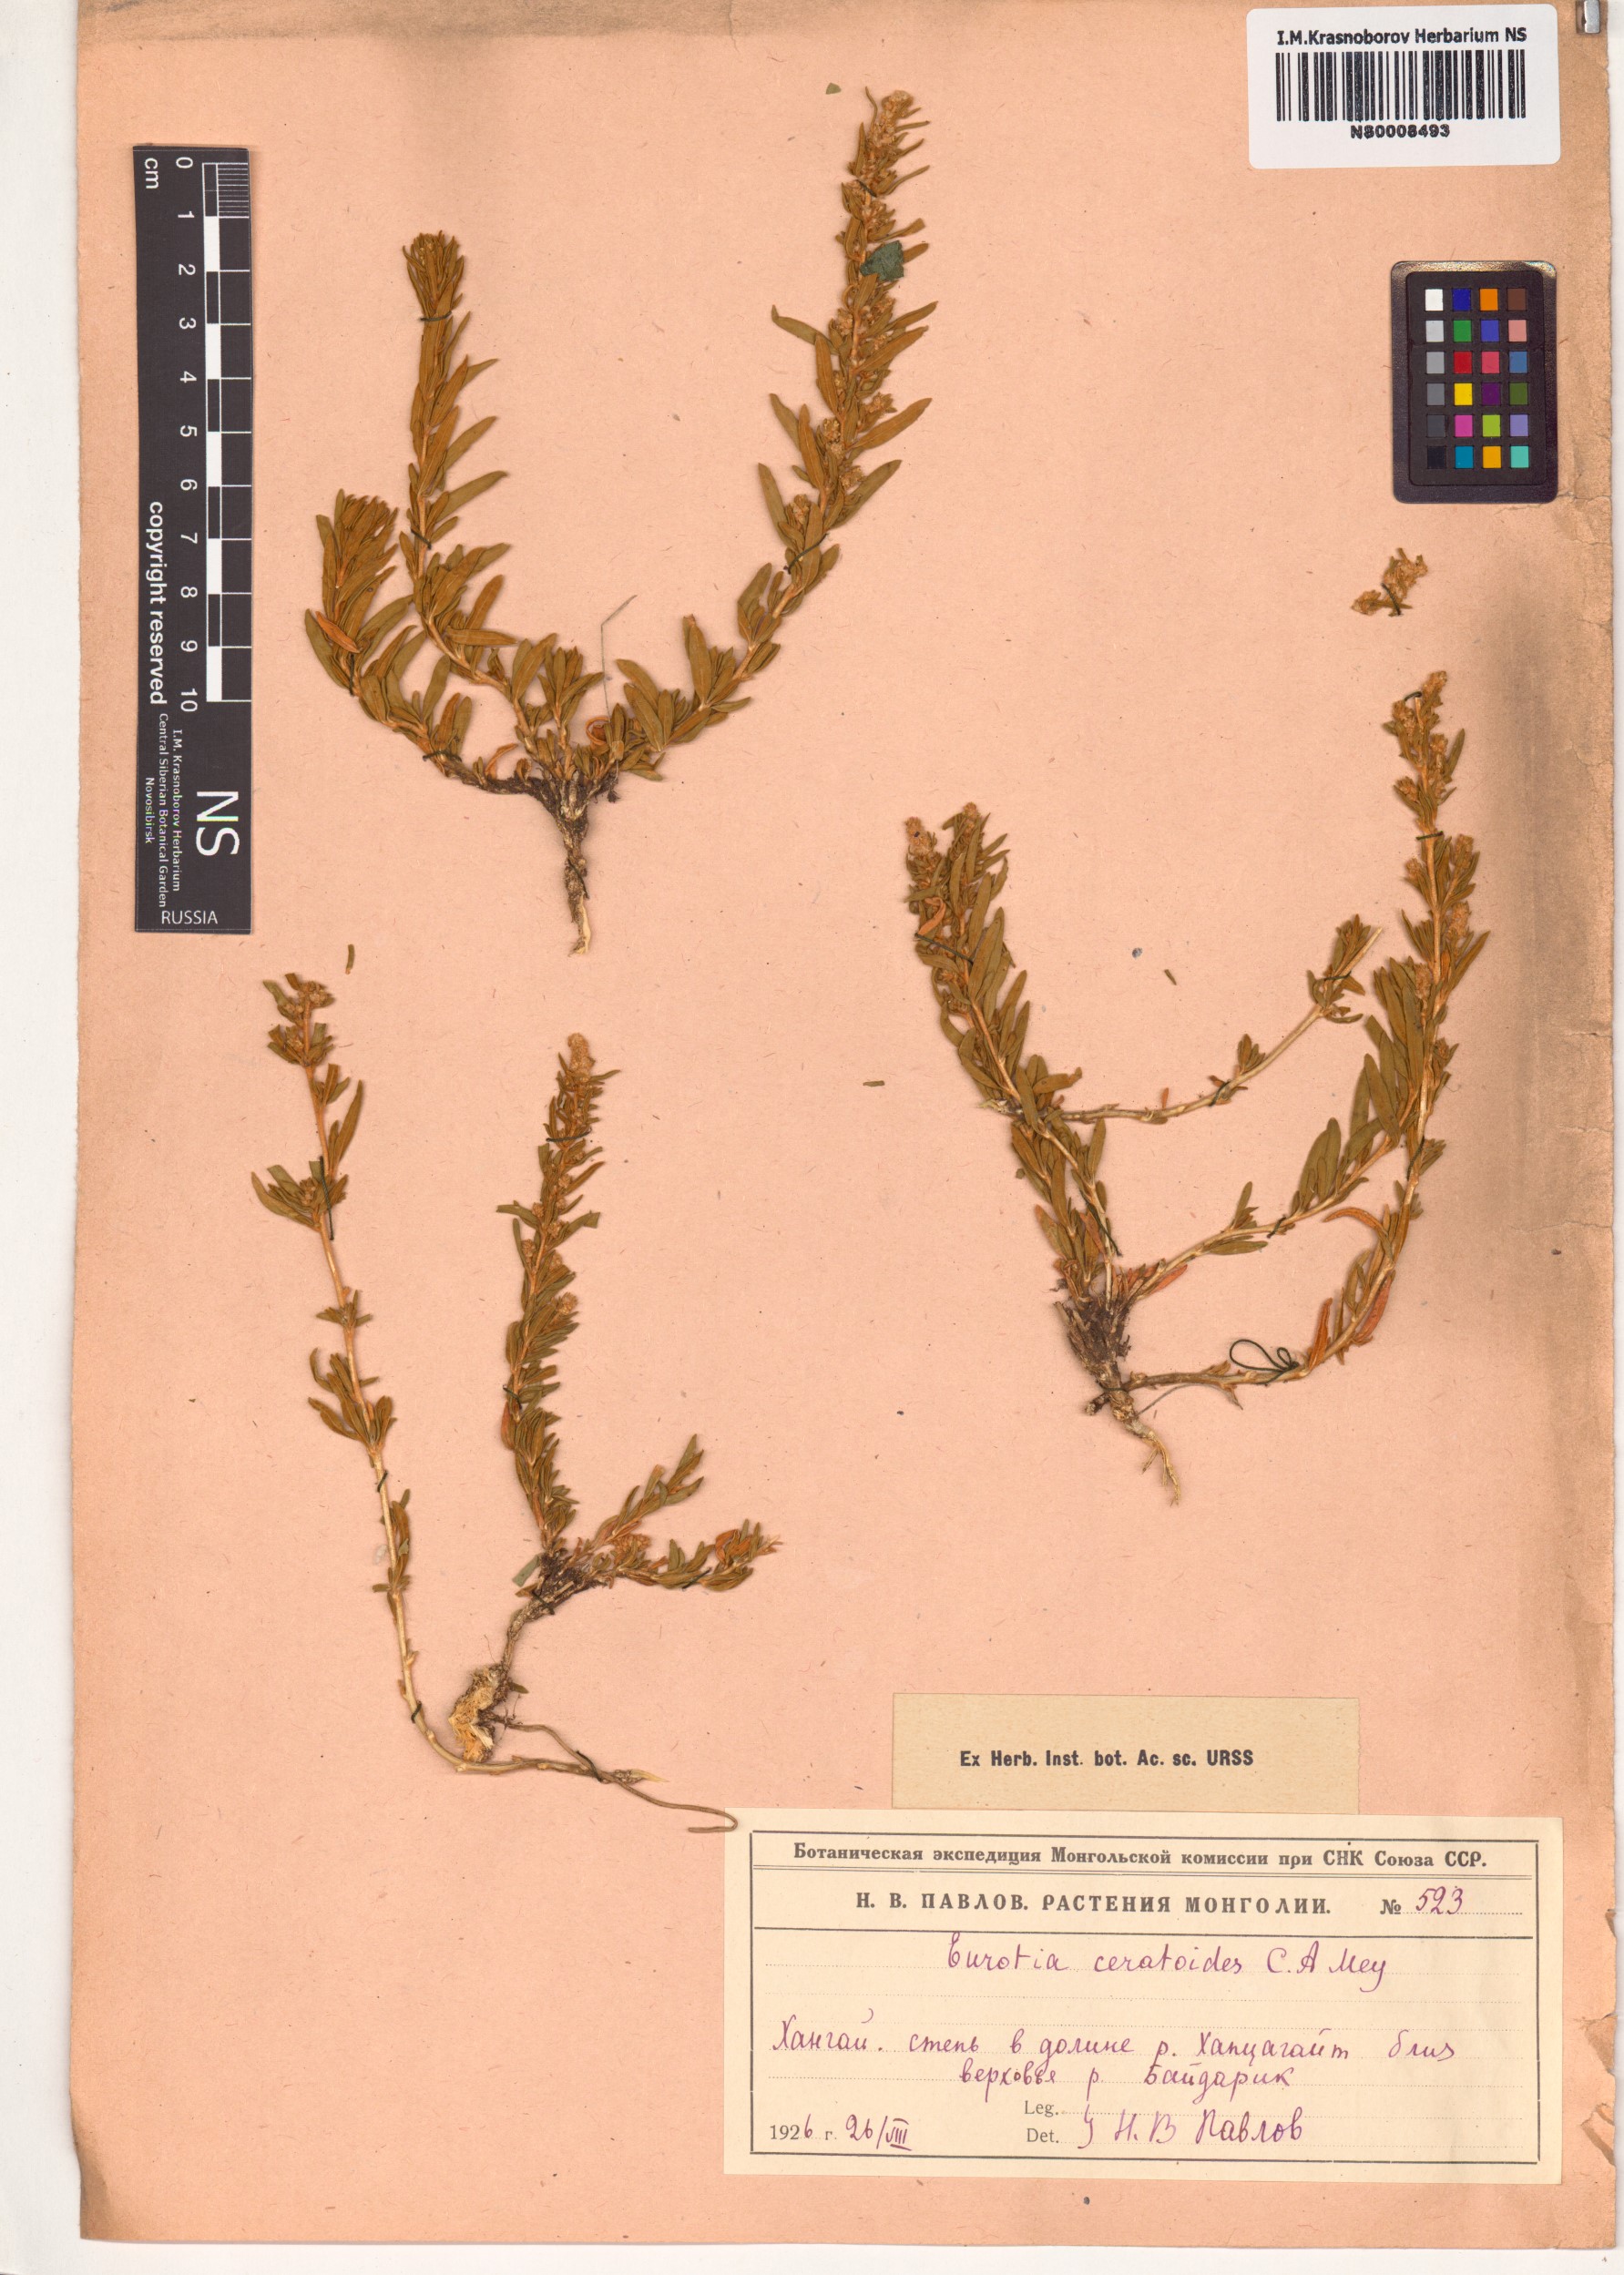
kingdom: Plantae
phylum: Tracheophyta
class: Magnoliopsida
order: Caryophyllales
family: Amaranthaceae
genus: Krascheninnikovia
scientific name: Krascheninnikovia ceratoides
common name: Pamirian winterfat
